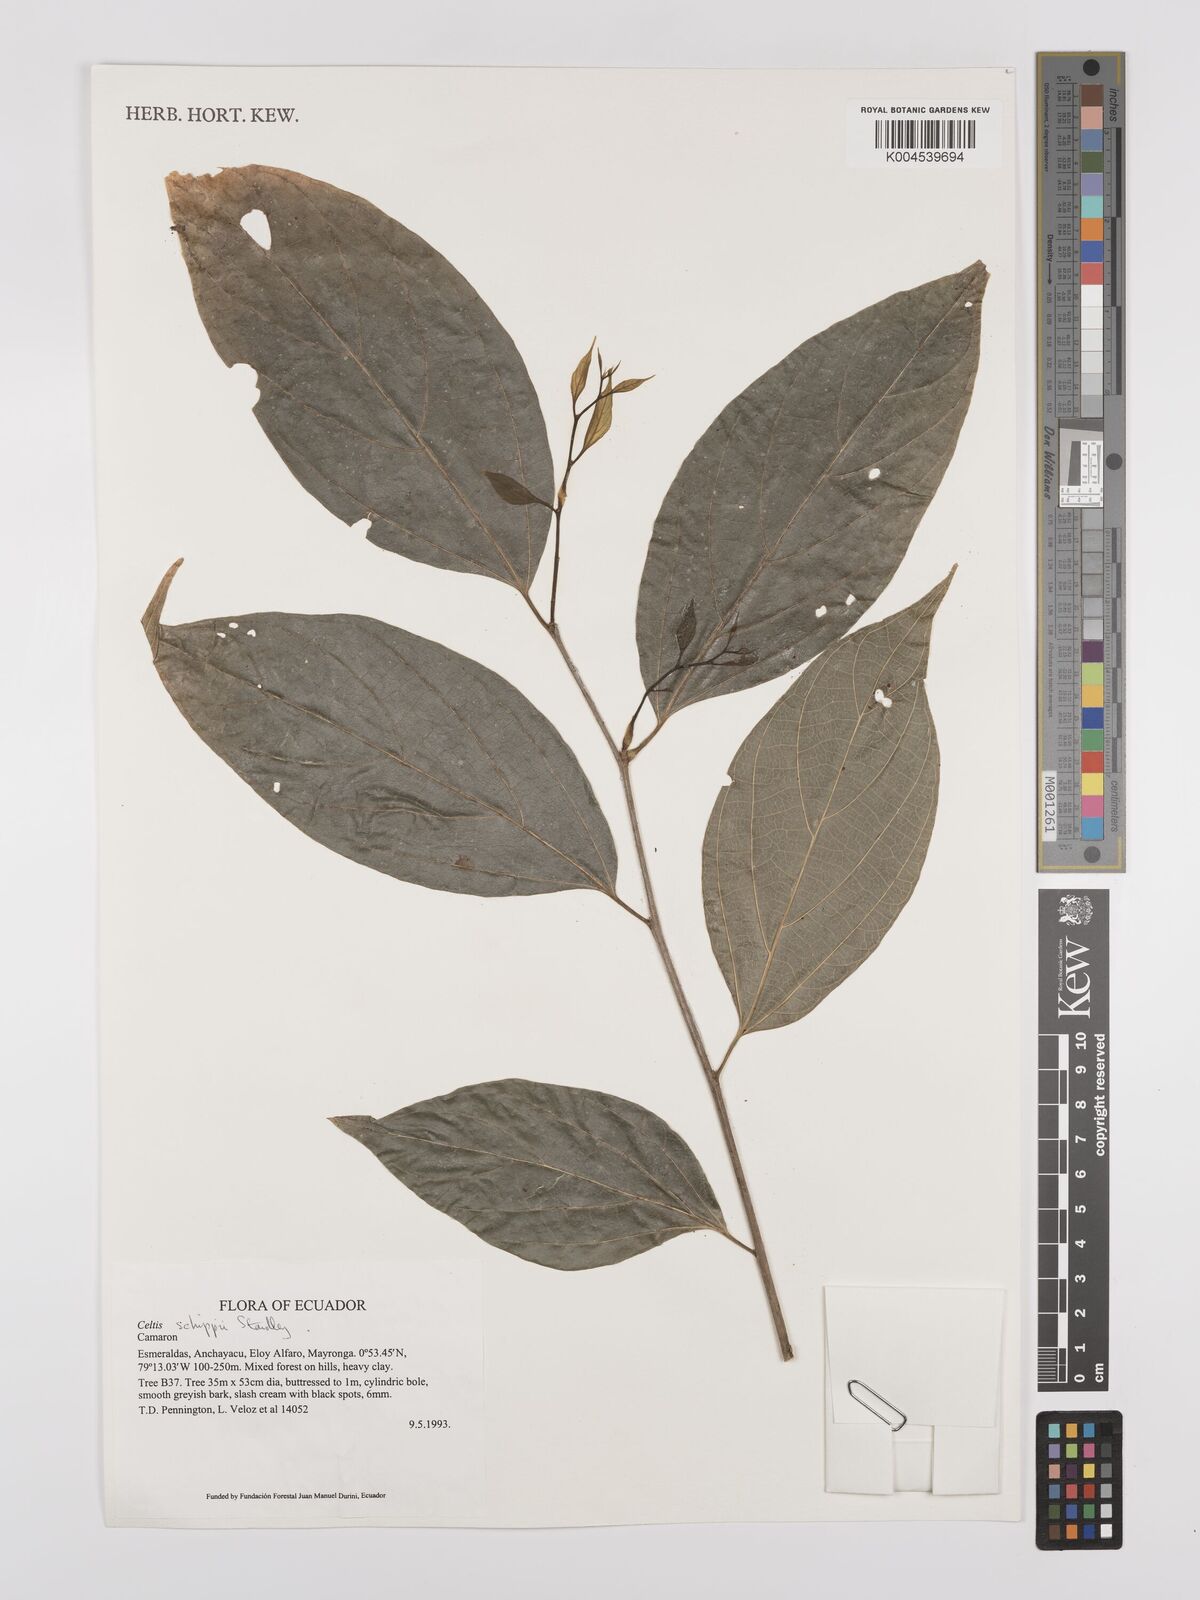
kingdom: Plantae
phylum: Tracheophyta
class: Magnoliopsida
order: Rosales
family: Cannabaceae
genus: Celtis
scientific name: Celtis schippii
